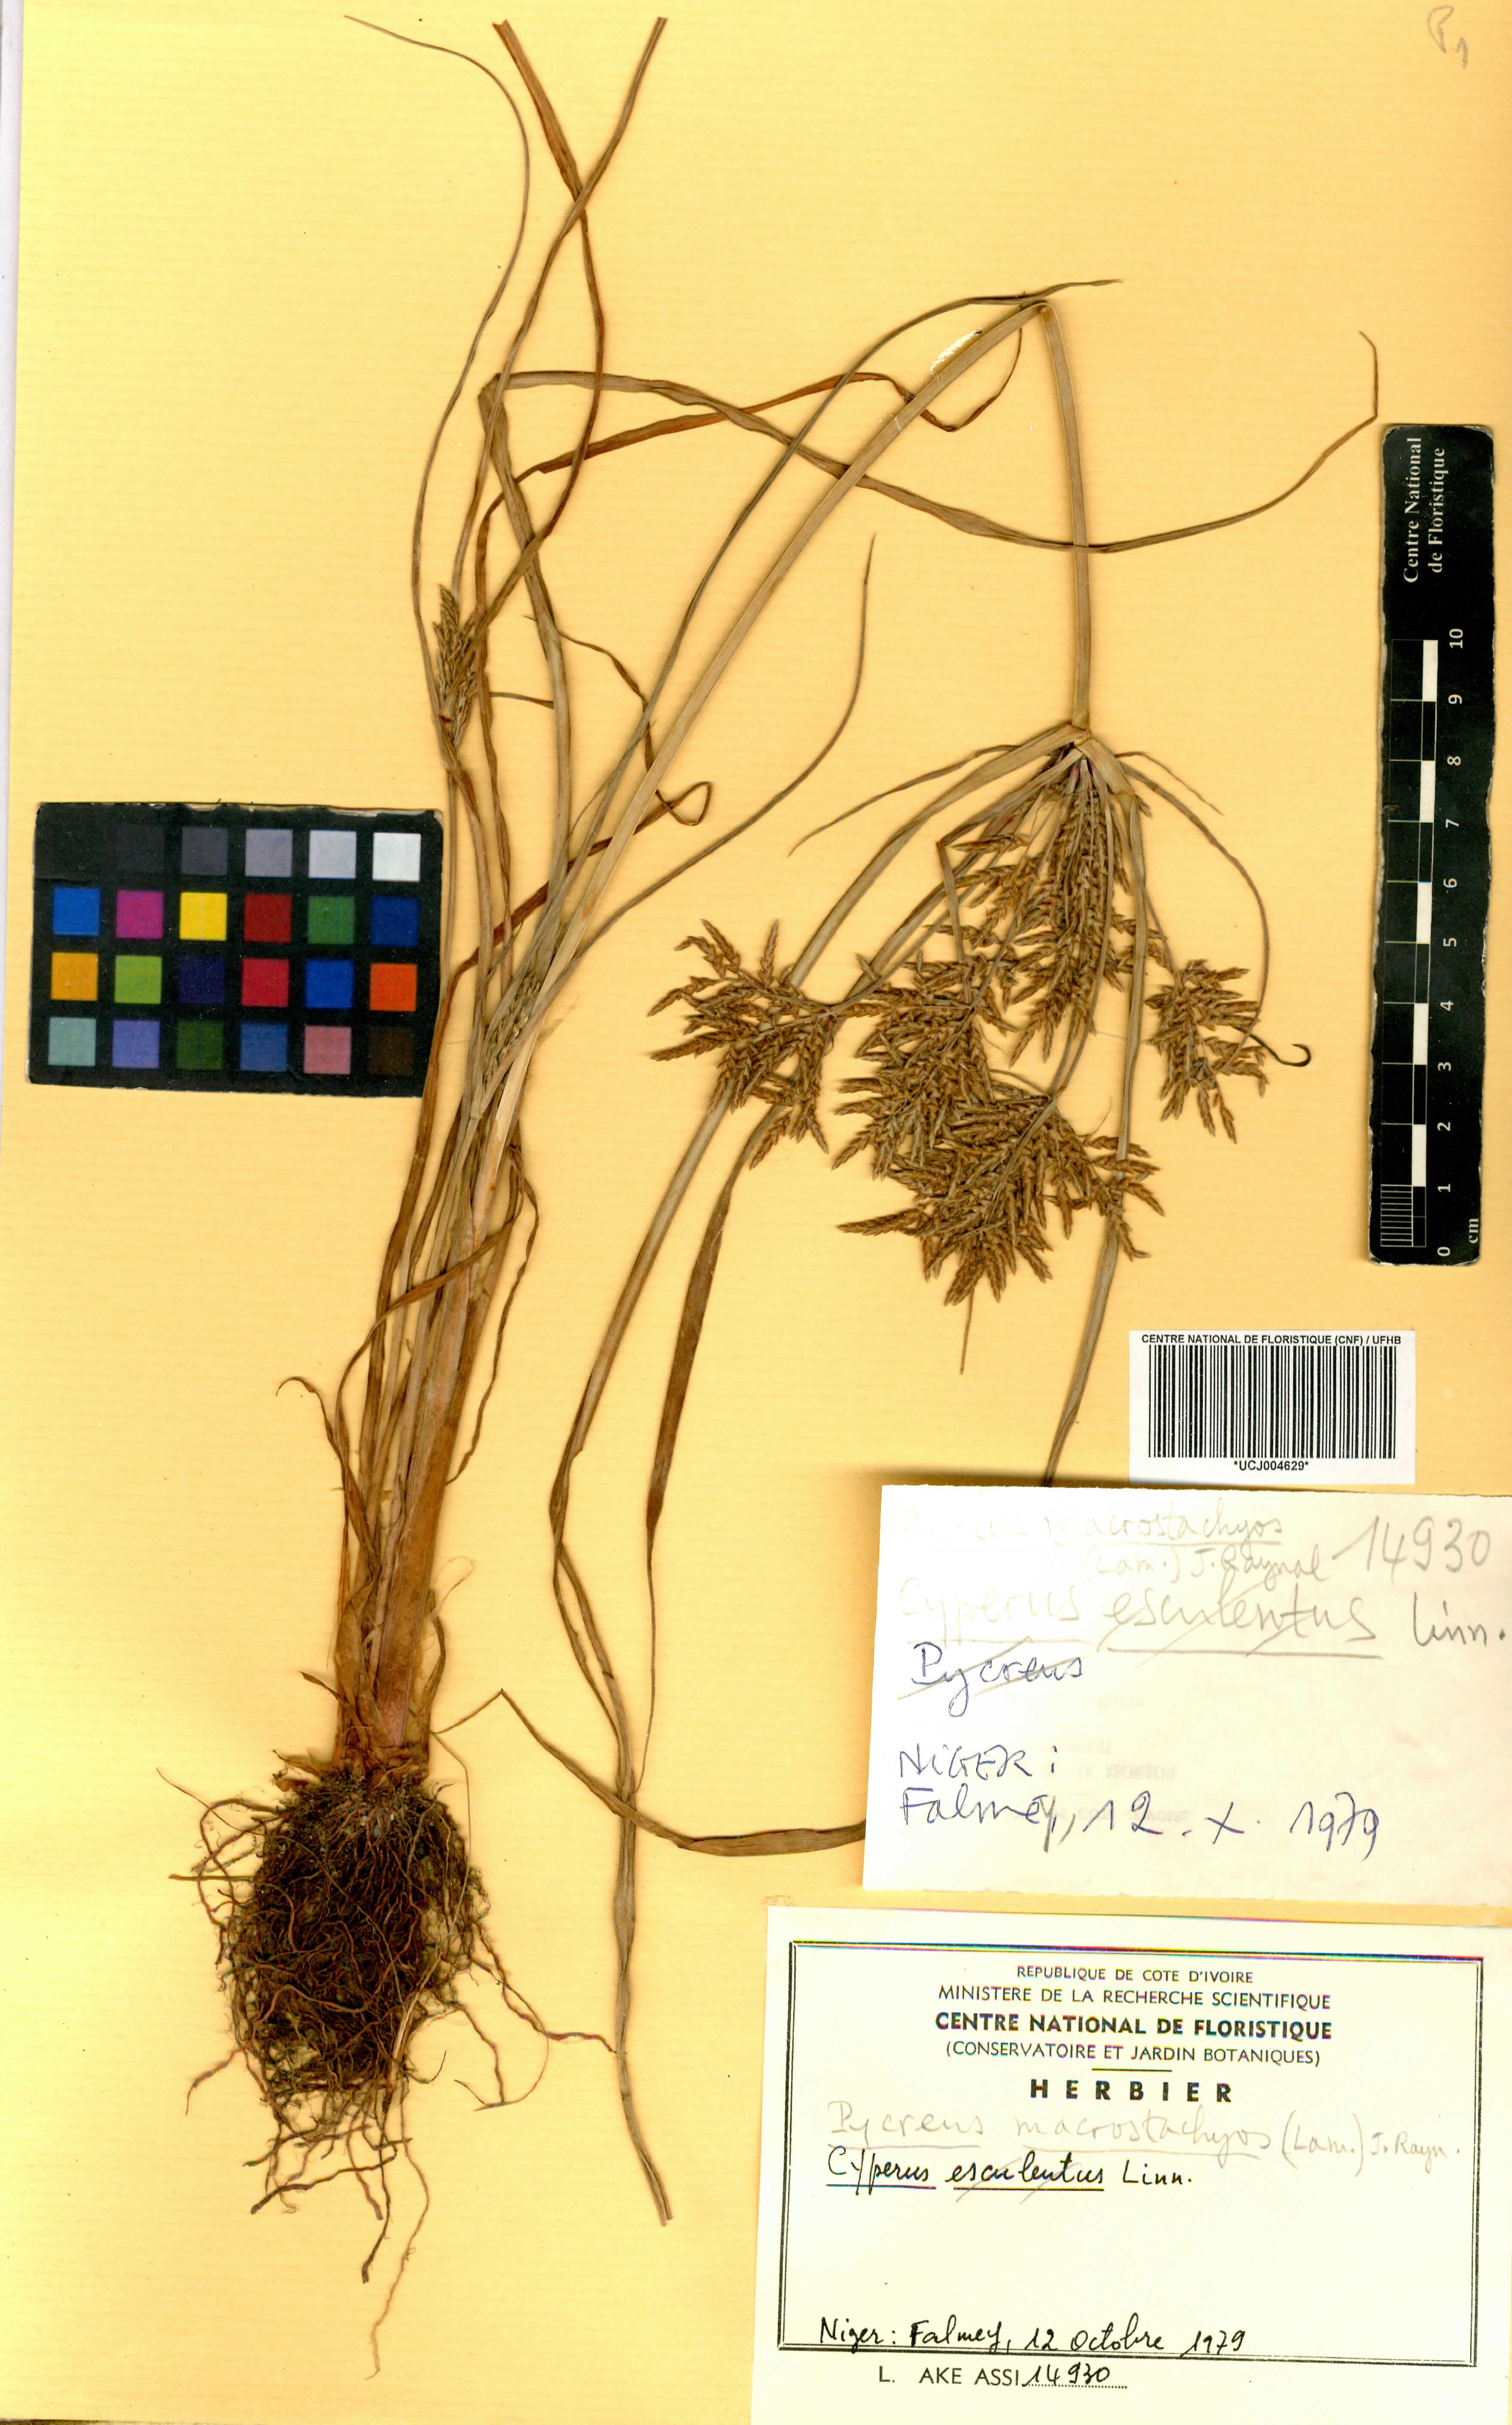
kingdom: Plantae
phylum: Tracheophyta
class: Liliopsida
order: Poales
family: Cyperaceae
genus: Cyperus
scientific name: Cyperus macrostachyos
